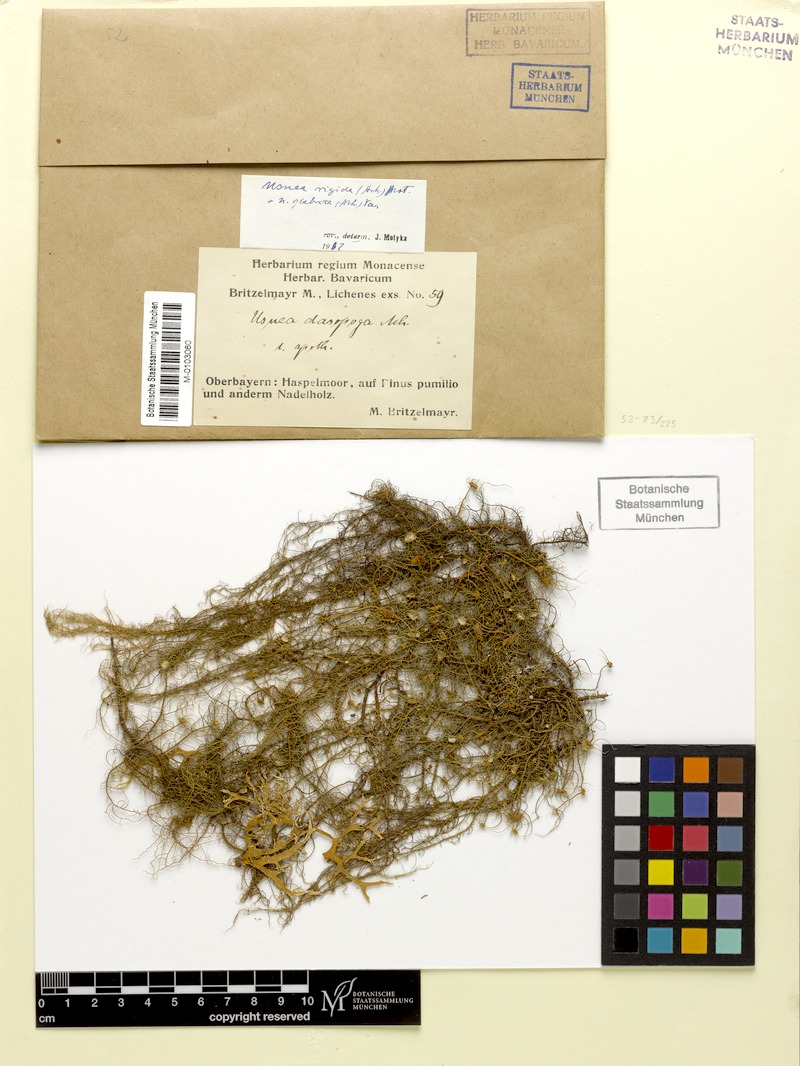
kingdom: Fungi
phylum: Ascomycota
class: Lecanoromycetes
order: Lecanorales
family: Parmeliaceae
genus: Usnea
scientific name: Usnea quasirigida
